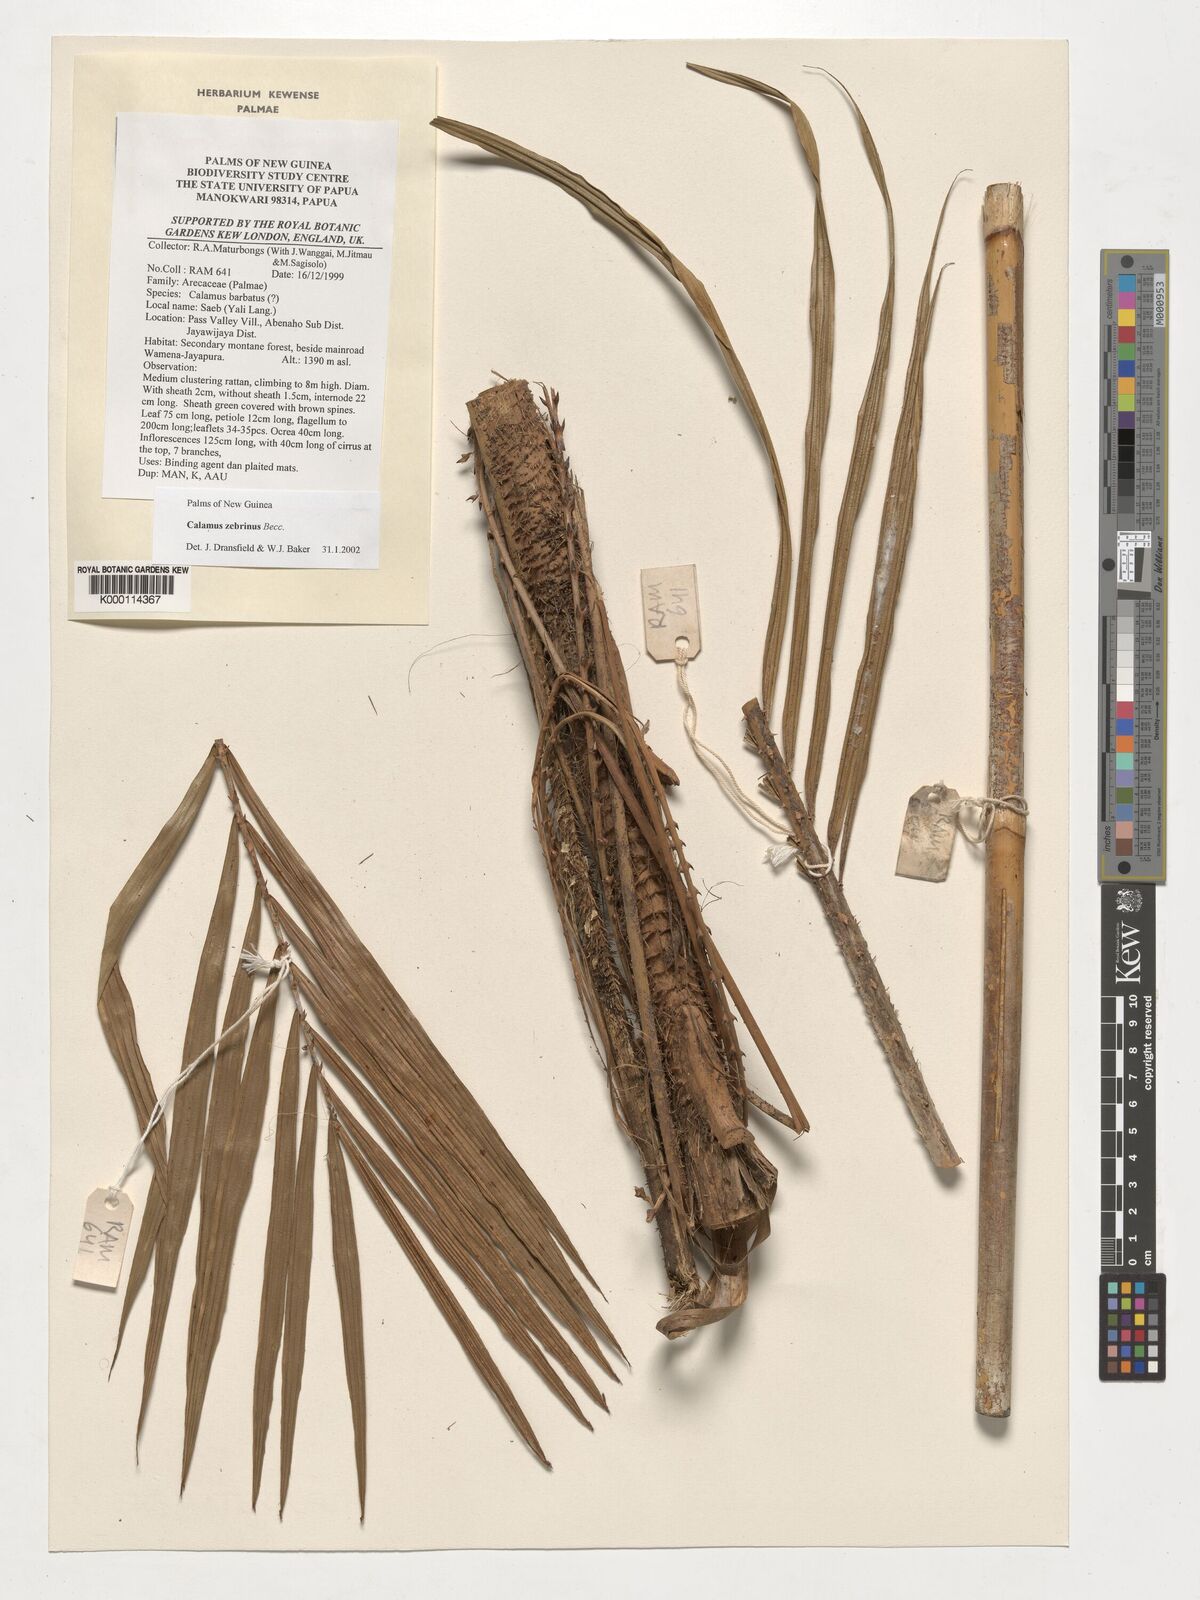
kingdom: Plantae
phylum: Tracheophyta
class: Liliopsida
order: Arecales
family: Arecaceae
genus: Calamus
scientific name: Calamus zebrinus
